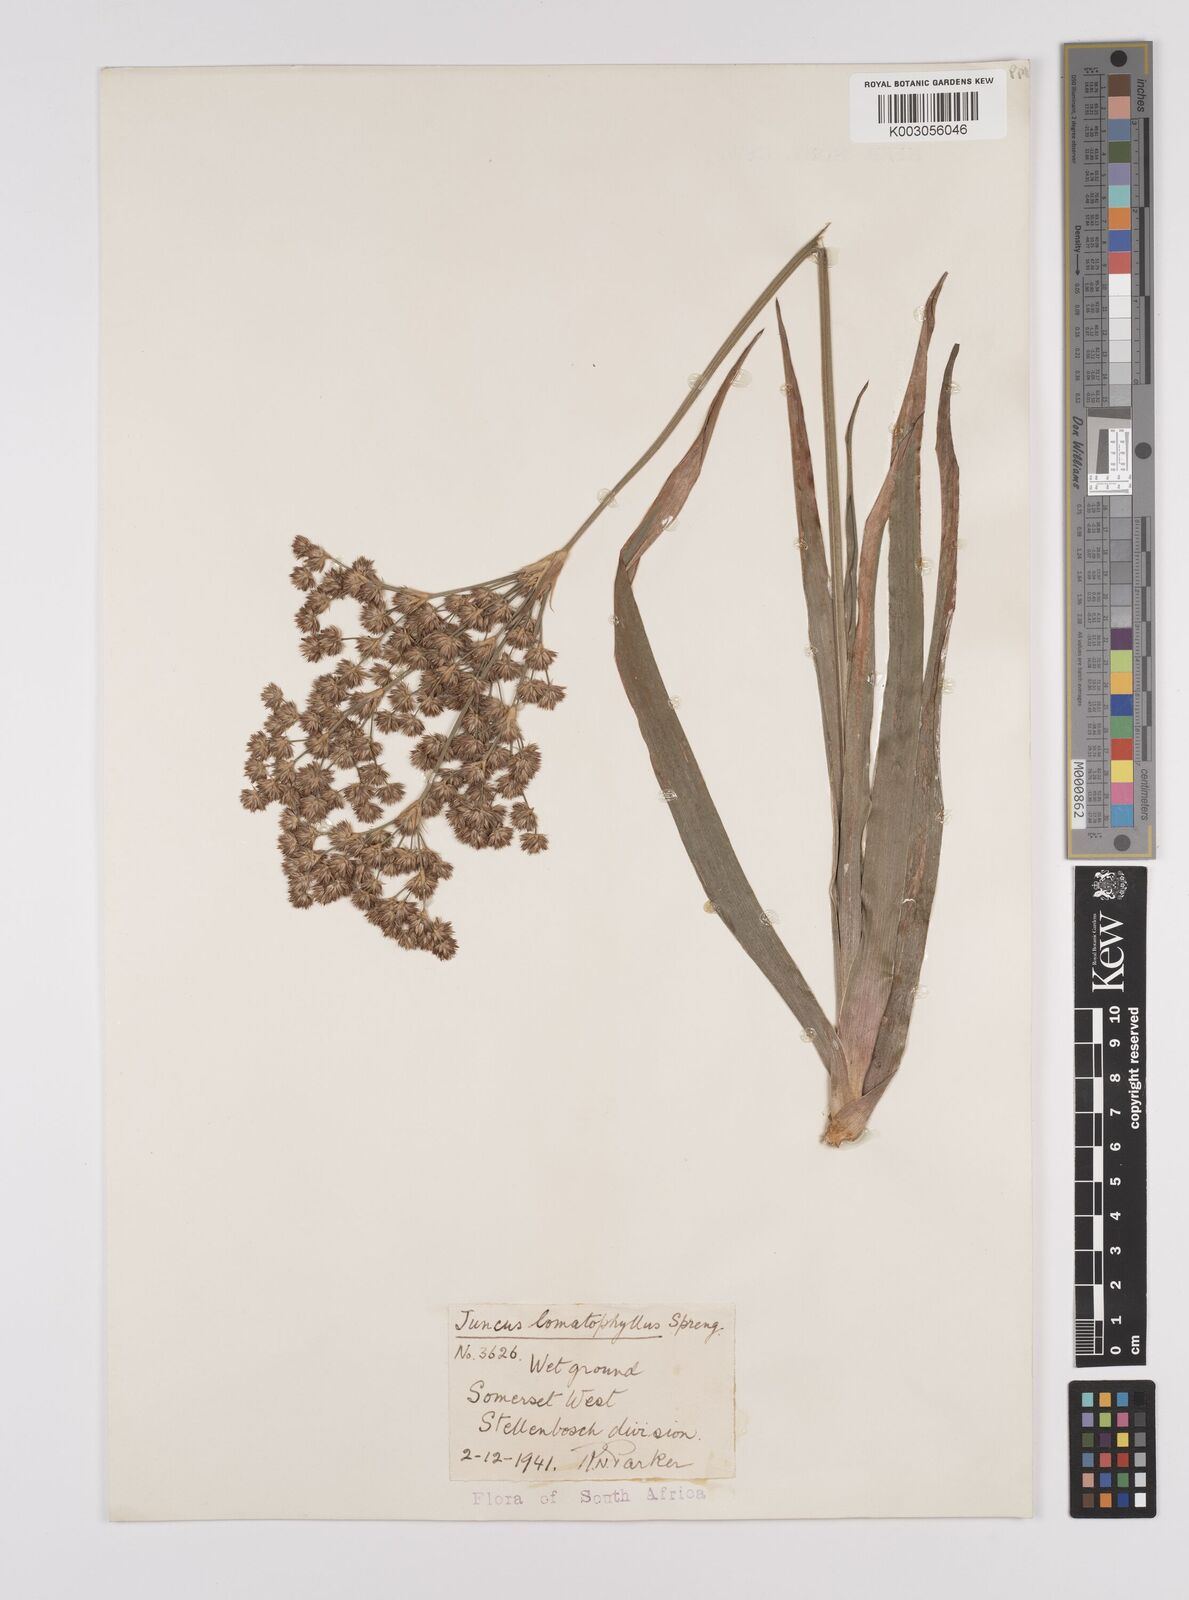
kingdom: Plantae
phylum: Tracheophyta
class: Liliopsida
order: Poales
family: Juncaceae
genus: Juncus
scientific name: Juncus lomatophyllus
